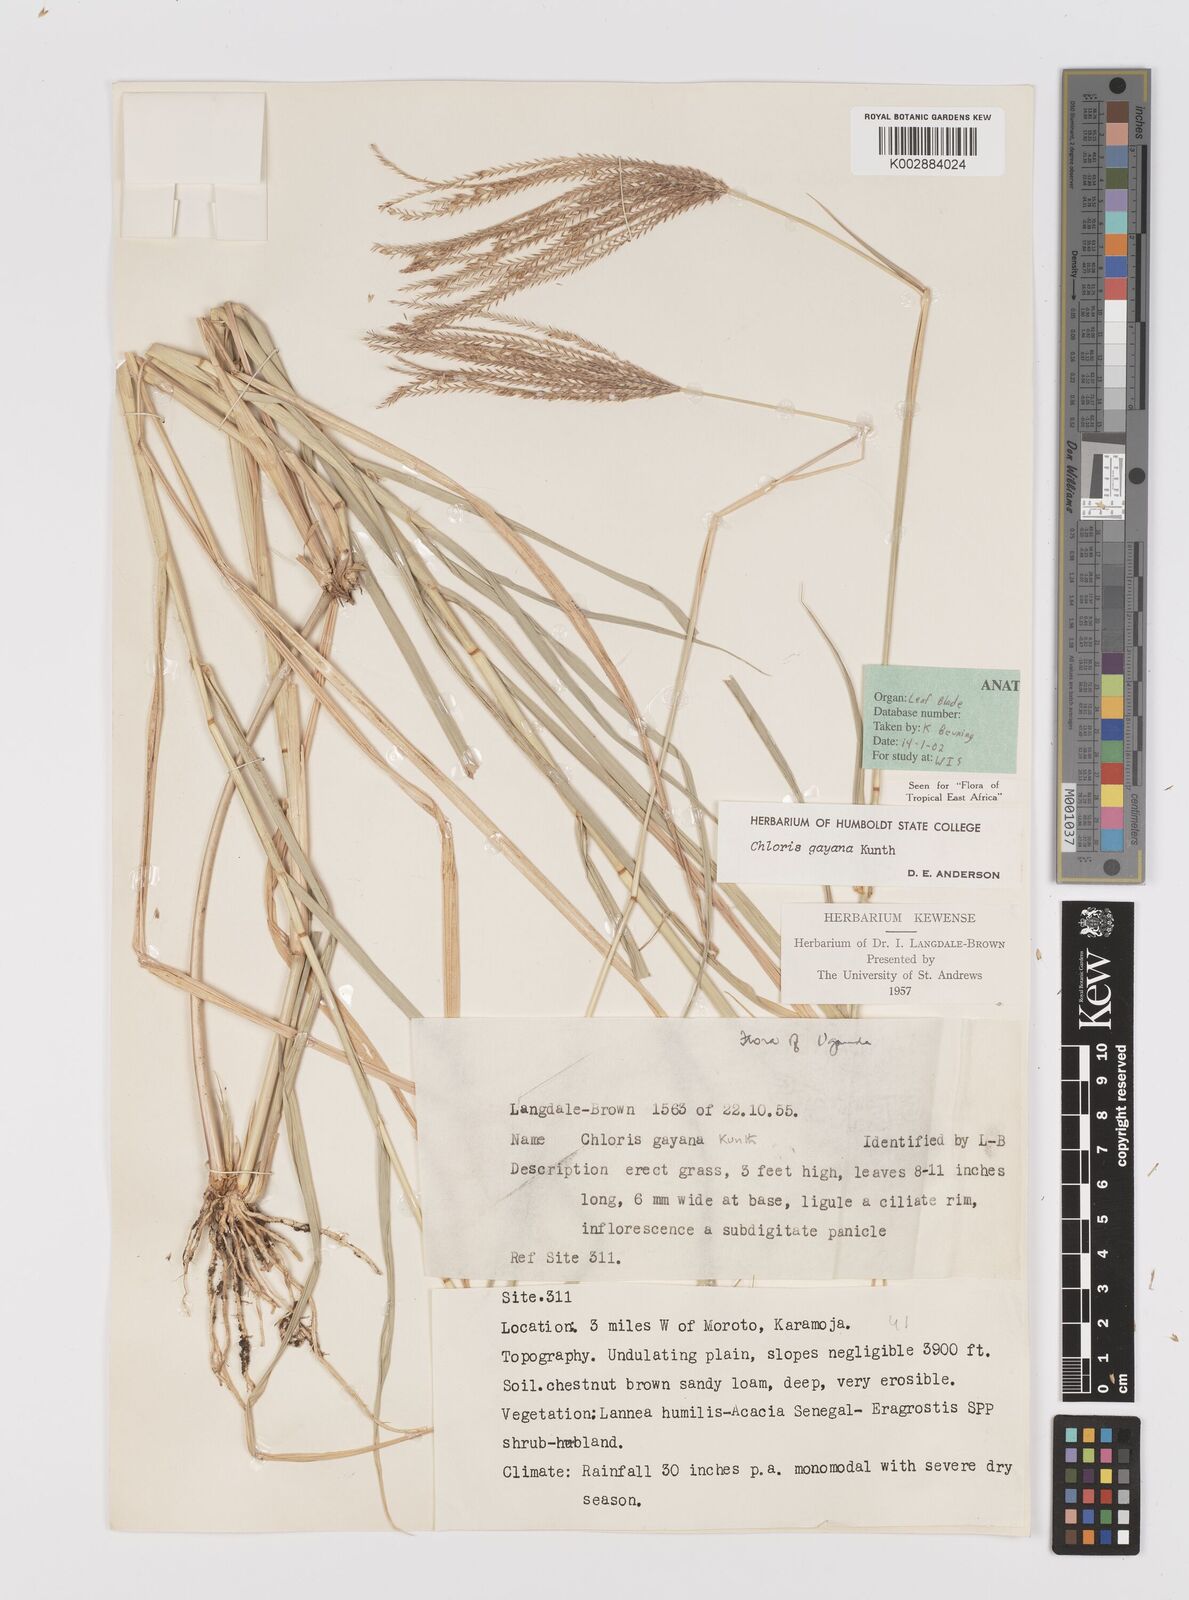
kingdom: Plantae
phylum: Tracheophyta
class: Liliopsida
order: Poales
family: Poaceae
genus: Chloris
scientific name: Chloris gayana
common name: Rhodes grass
